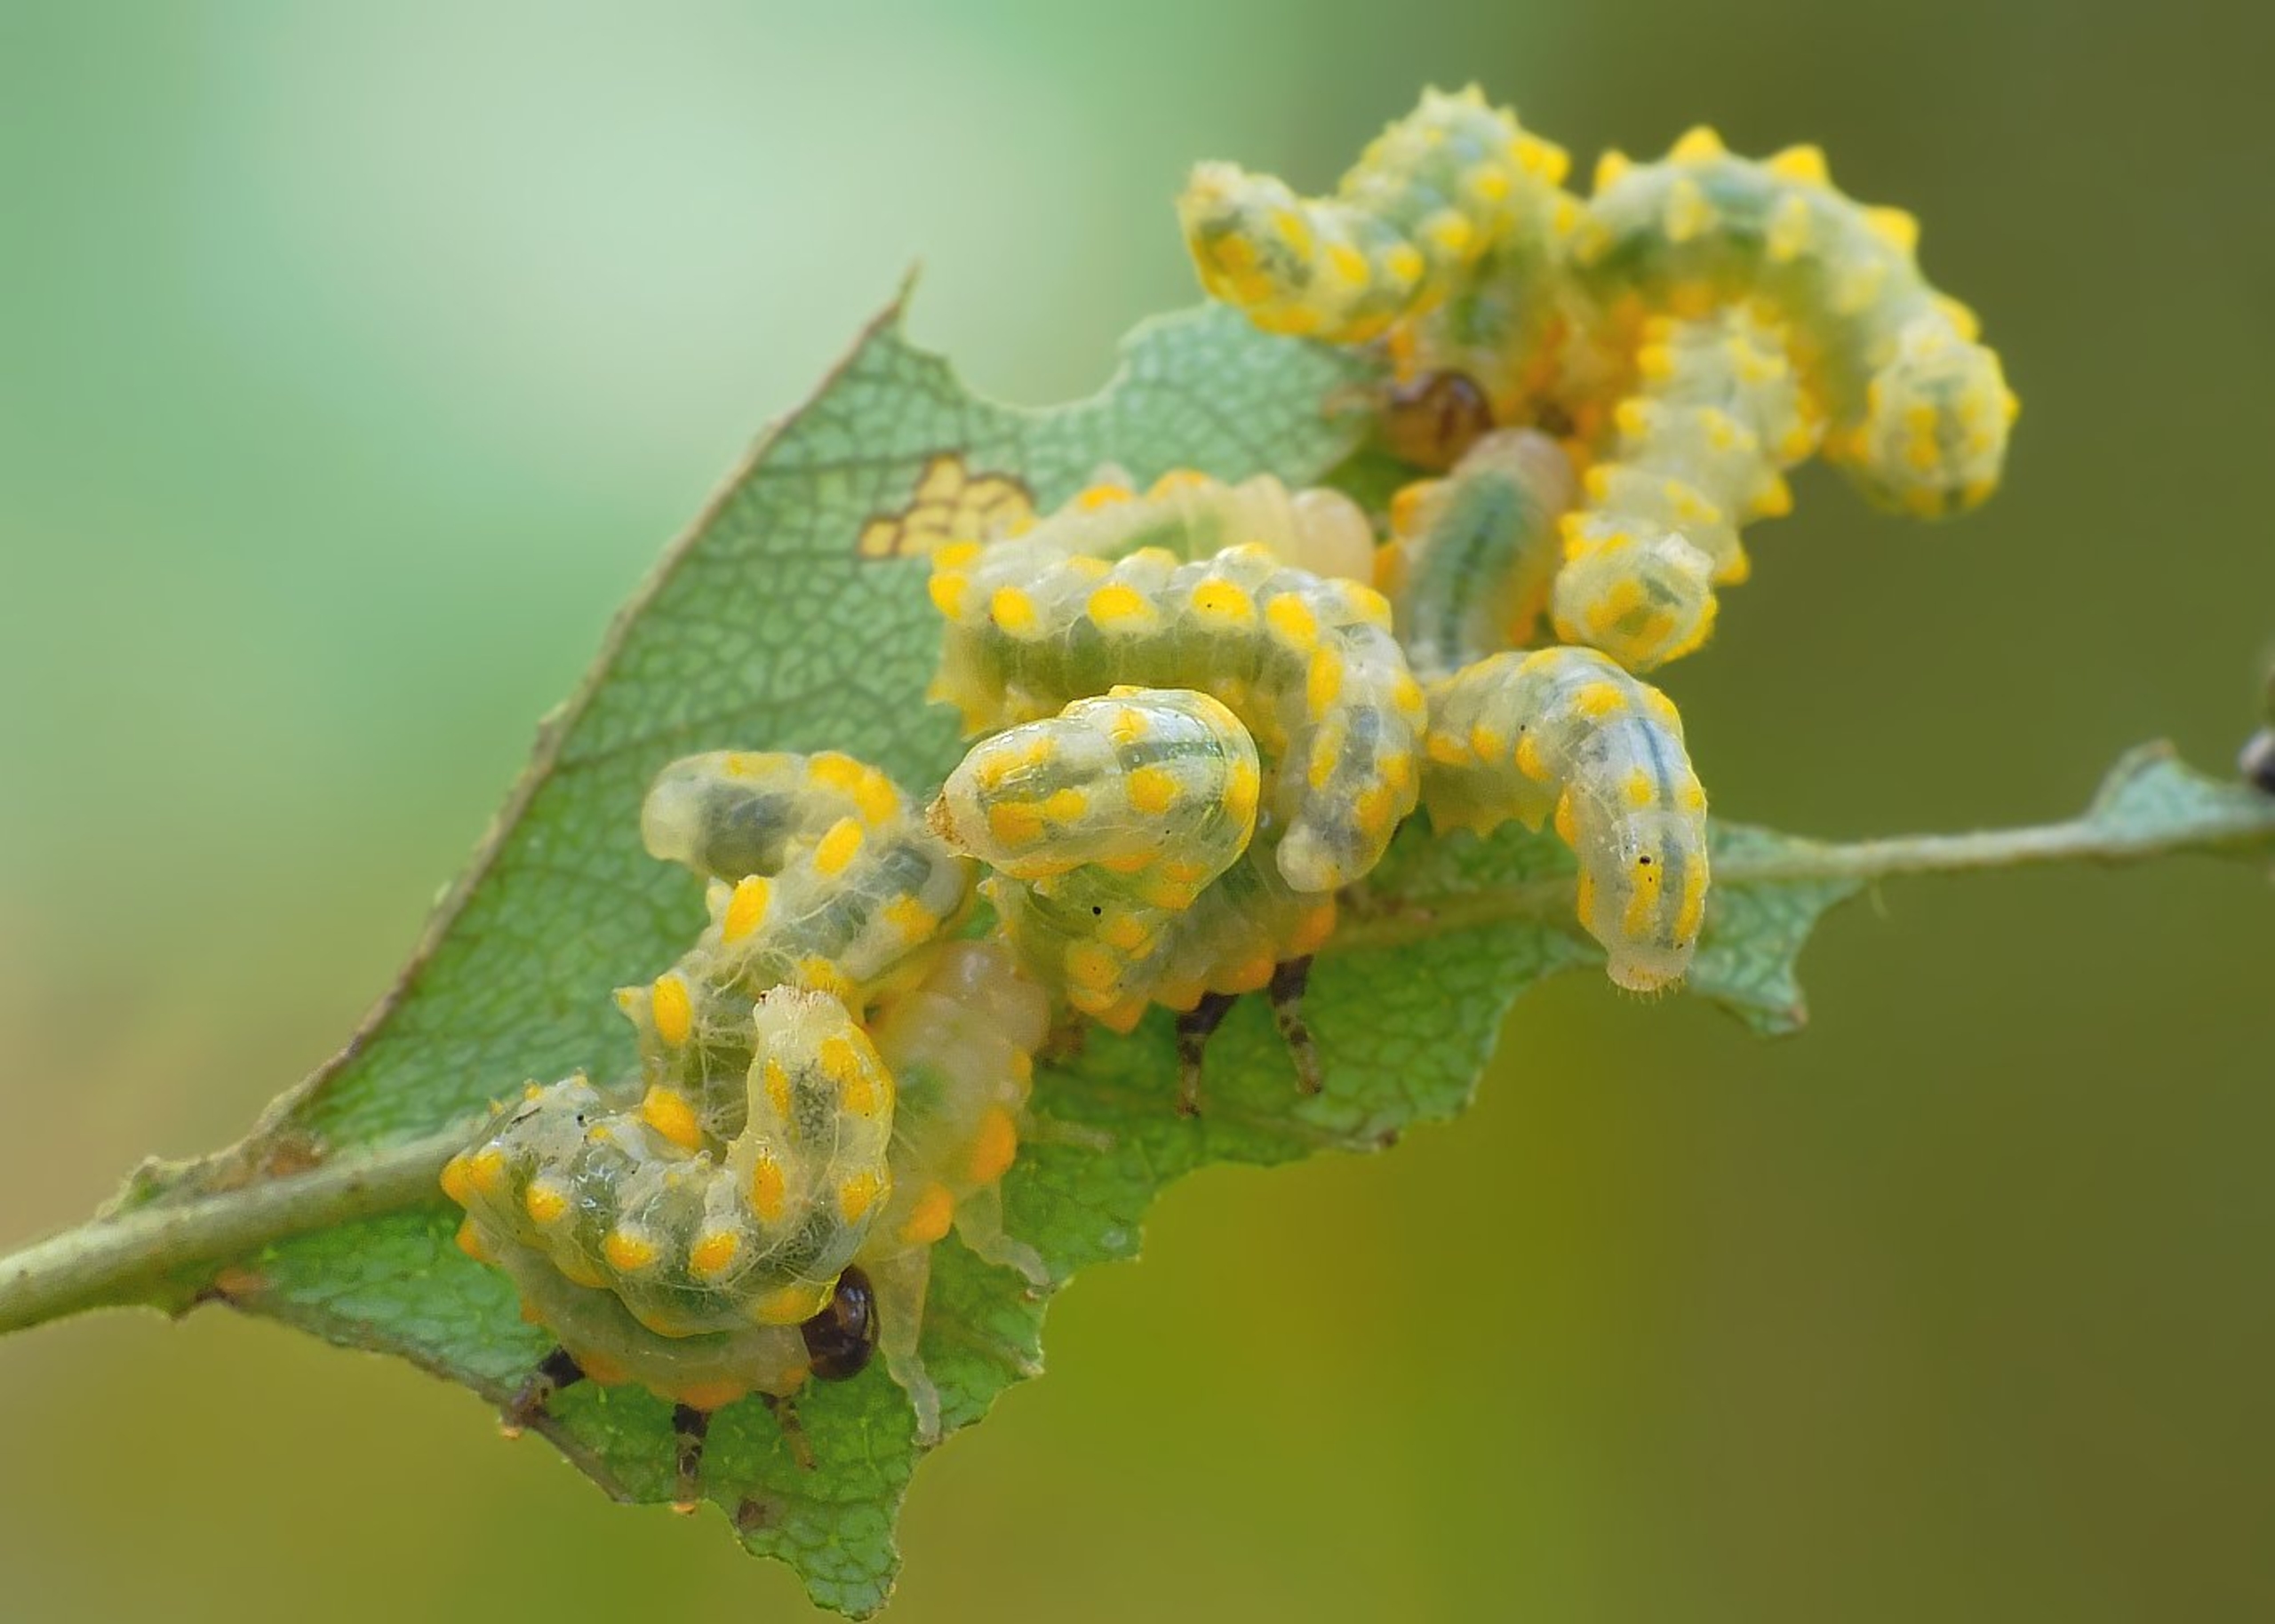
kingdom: Animalia
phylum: Arthropoda
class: Insecta
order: Hymenoptera
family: Argidae
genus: Arge
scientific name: Arge metallica
